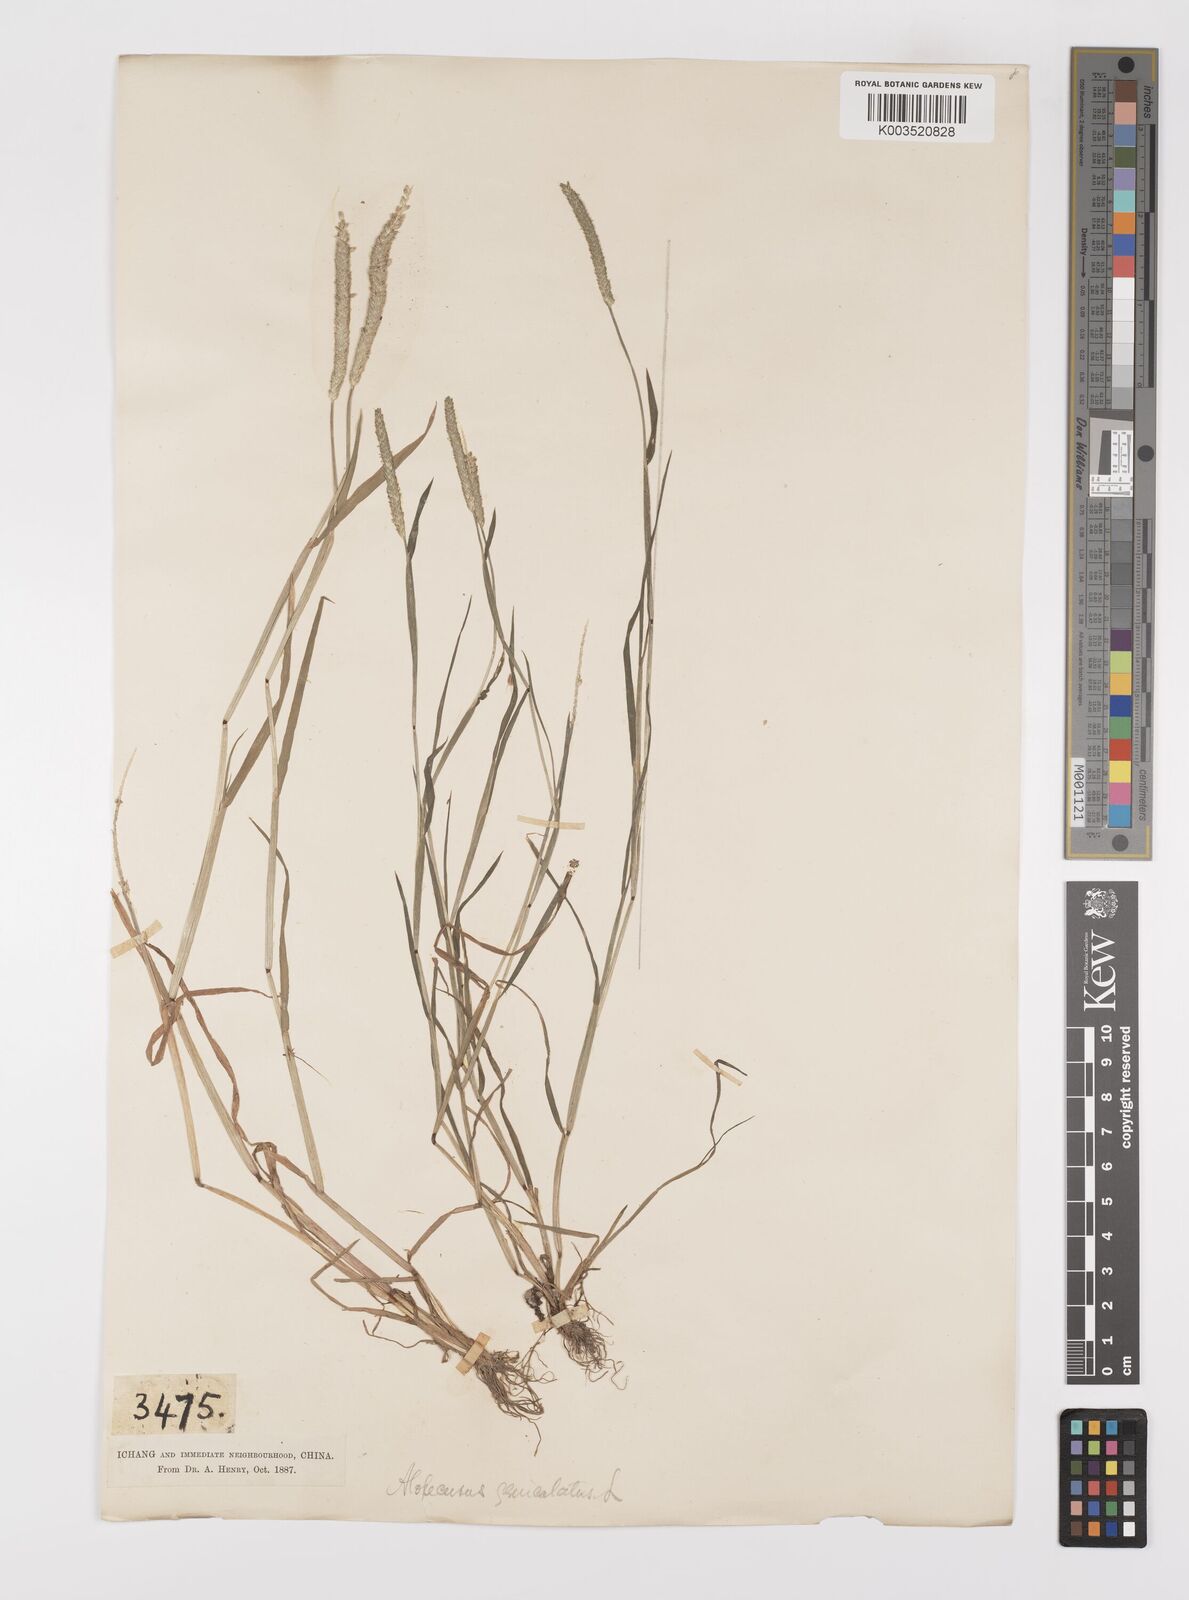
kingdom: Plantae
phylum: Tracheophyta
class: Liliopsida
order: Poales
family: Poaceae
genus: Alopecurus
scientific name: Alopecurus aequalis
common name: Orange foxtail
